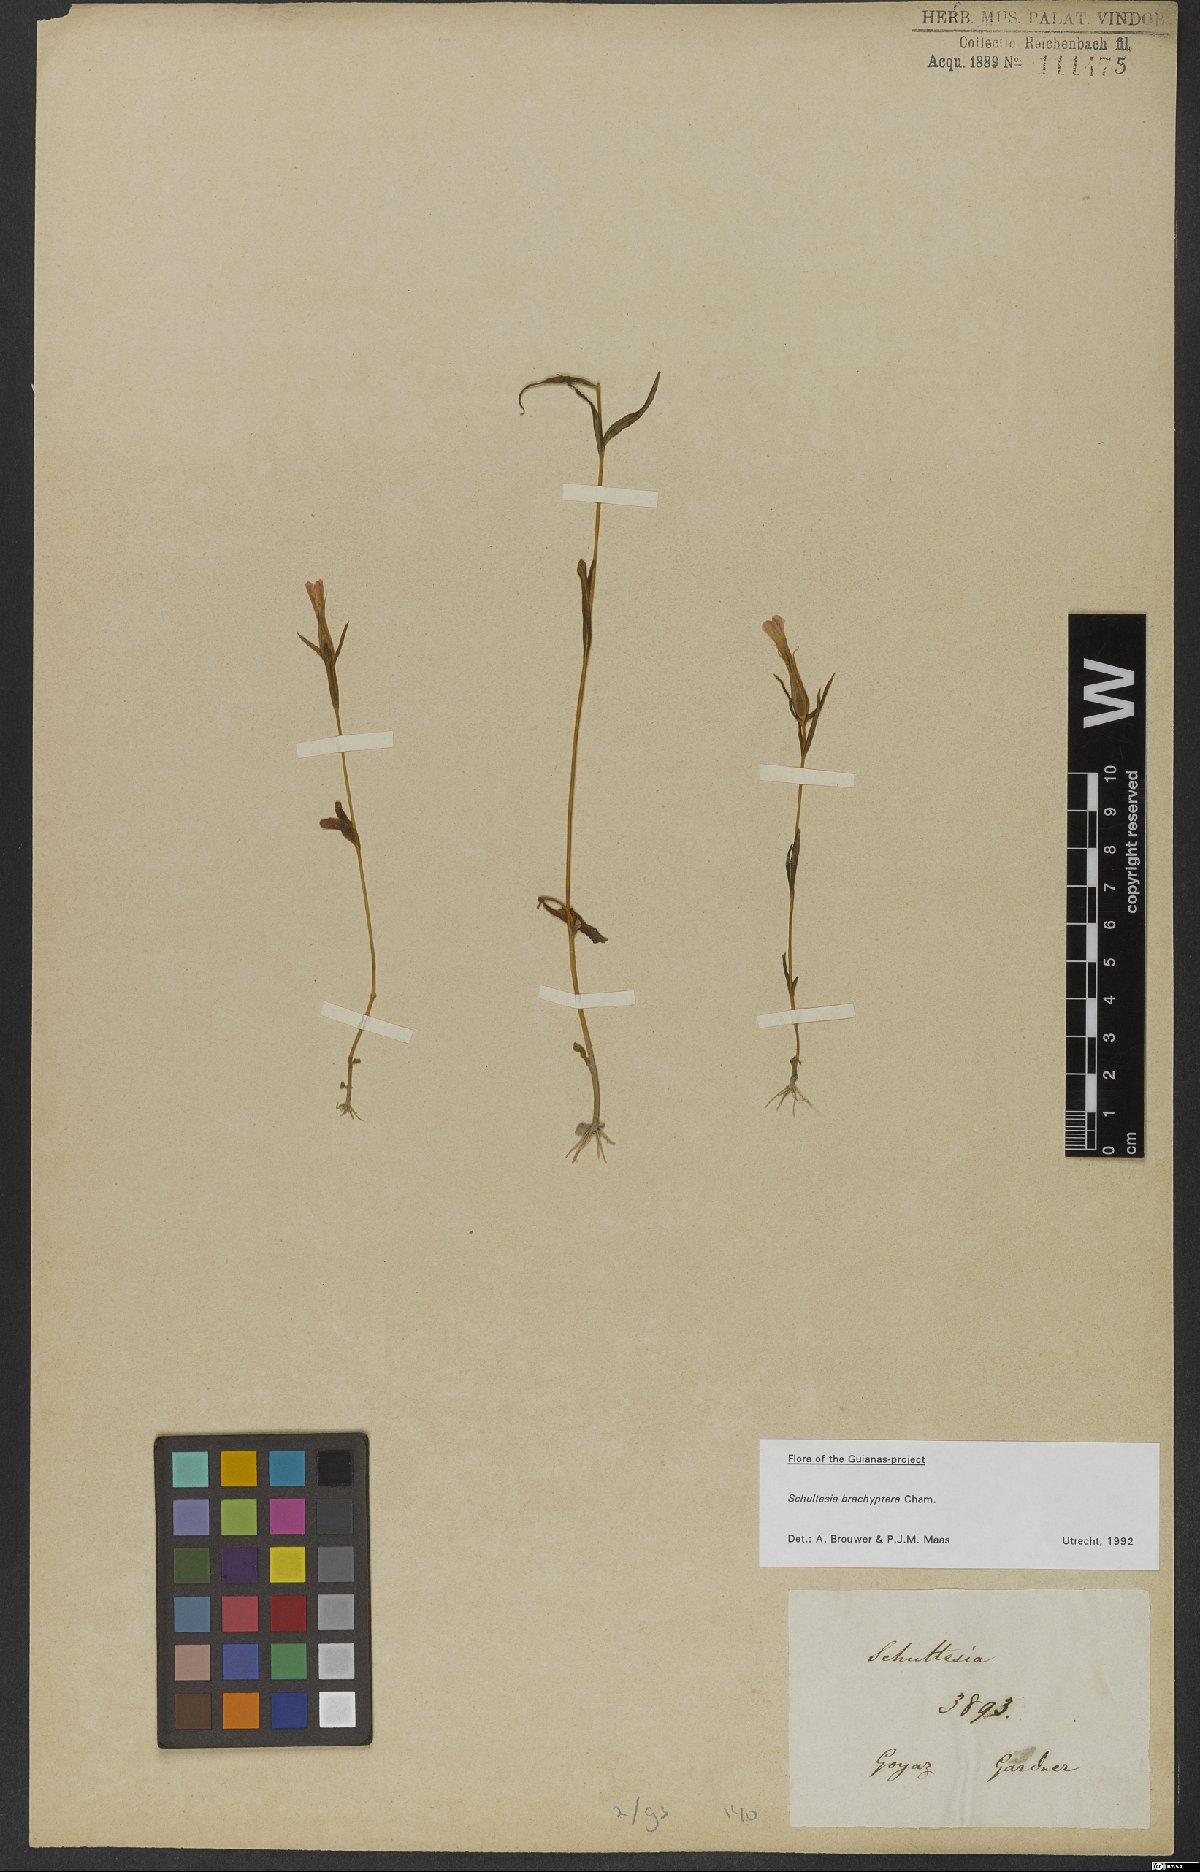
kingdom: Plantae
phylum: Tracheophyta
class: Magnoliopsida
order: Gentianales
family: Gentianaceae
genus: Schultesia
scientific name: Schultesia brachyptera
